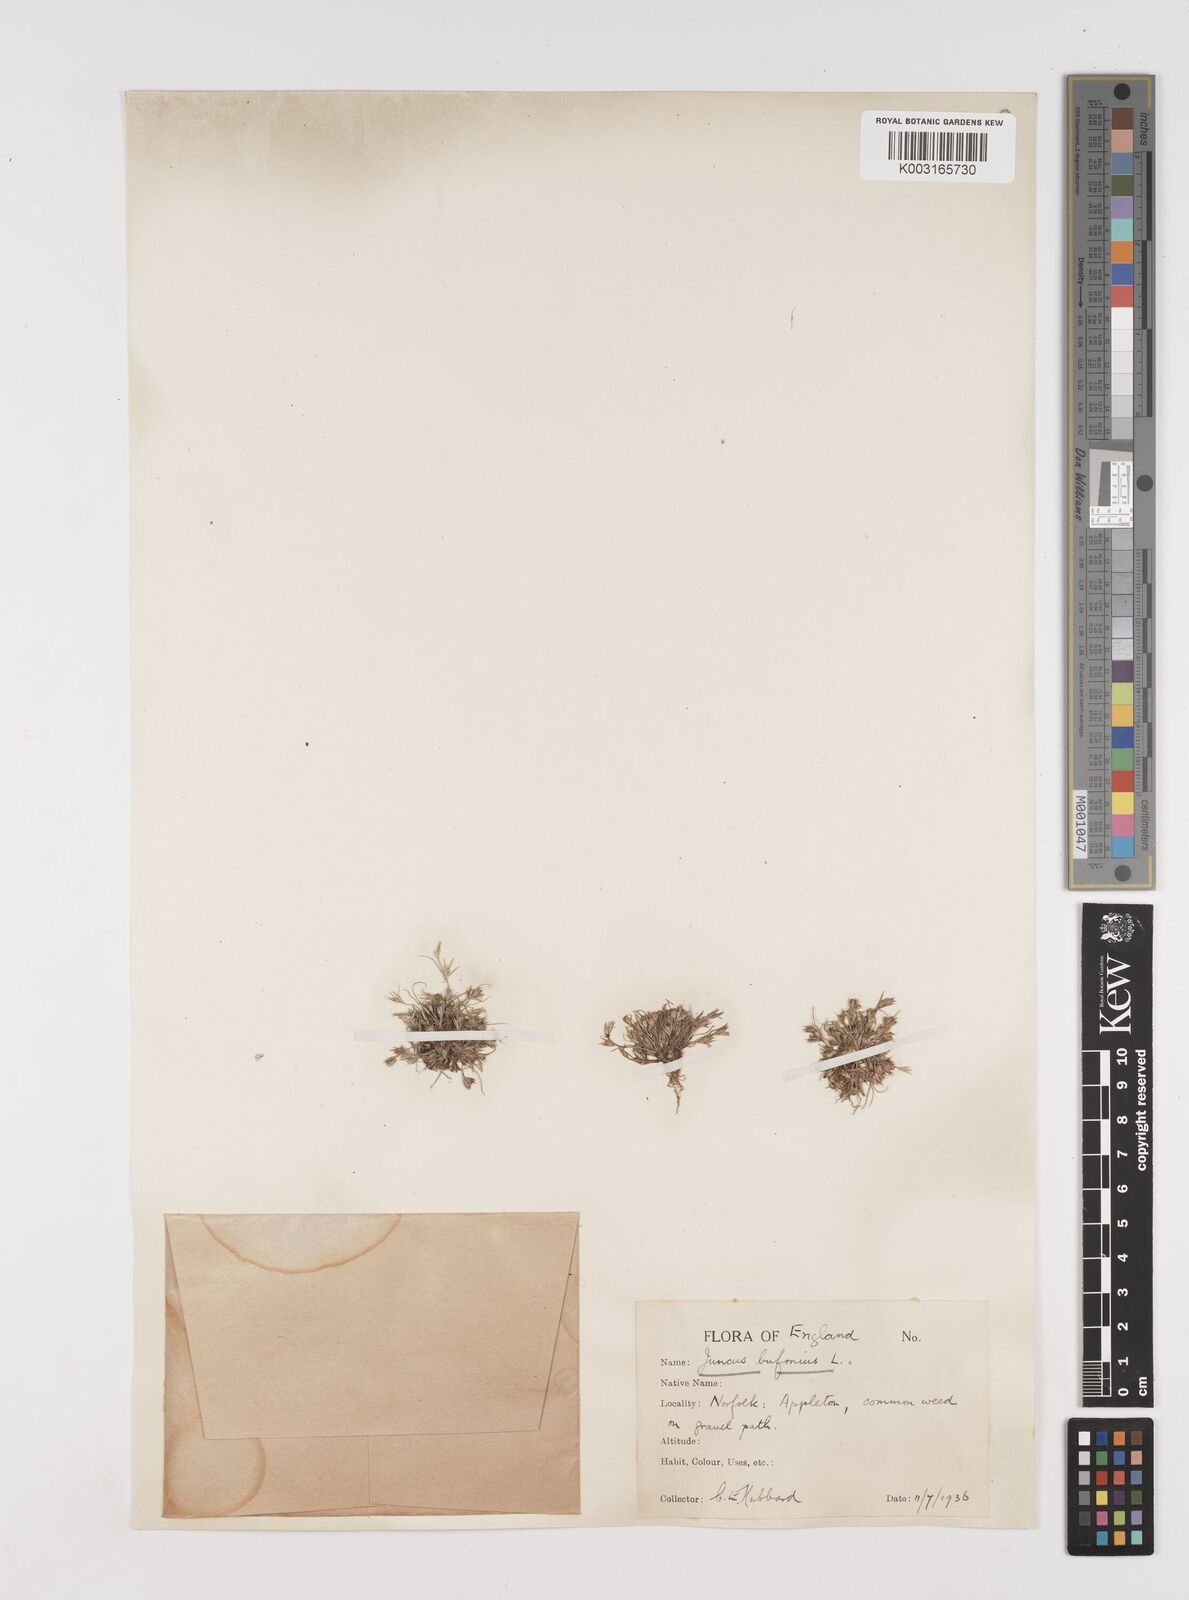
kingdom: Plantae
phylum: Tracheophyta
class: Liliopsida
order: Poales
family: Juncaceae
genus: Juncus
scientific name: Juncus bufonius
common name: Toad rush
